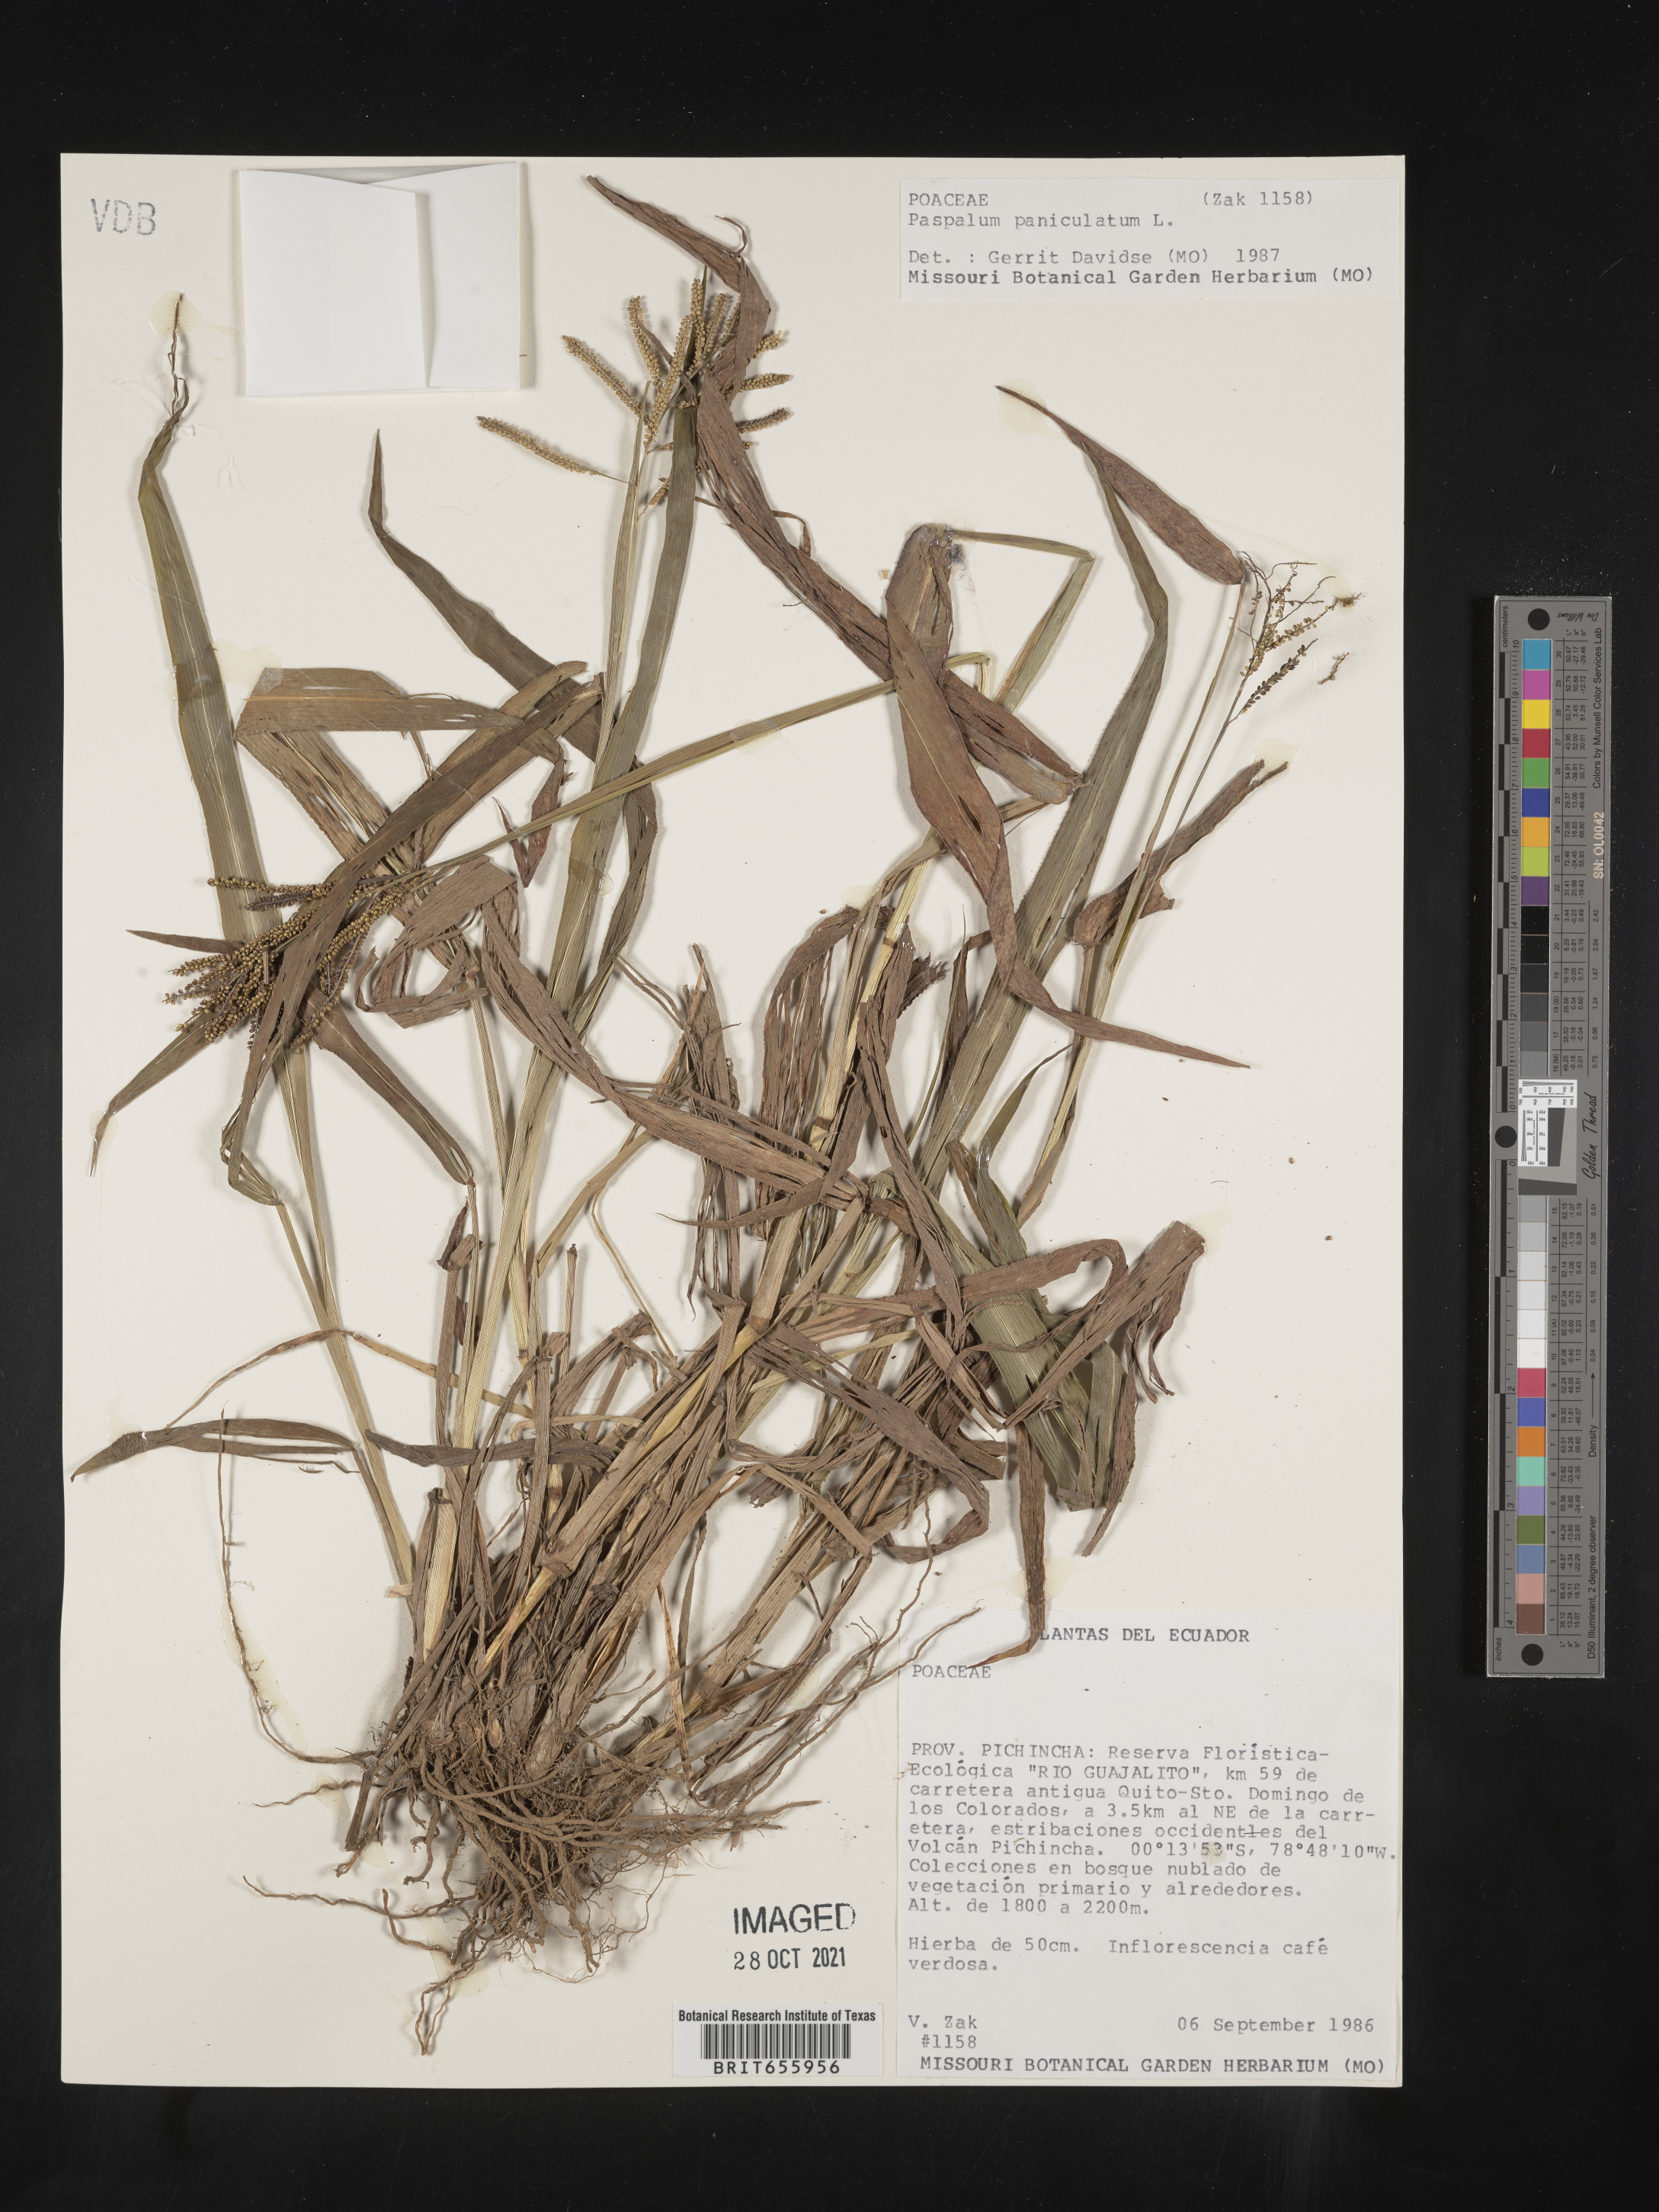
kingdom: Plantae
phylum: Tracheophyta
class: Liliopsida
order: Poales
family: Poaceae
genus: Paspalum
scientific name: Paspalum
